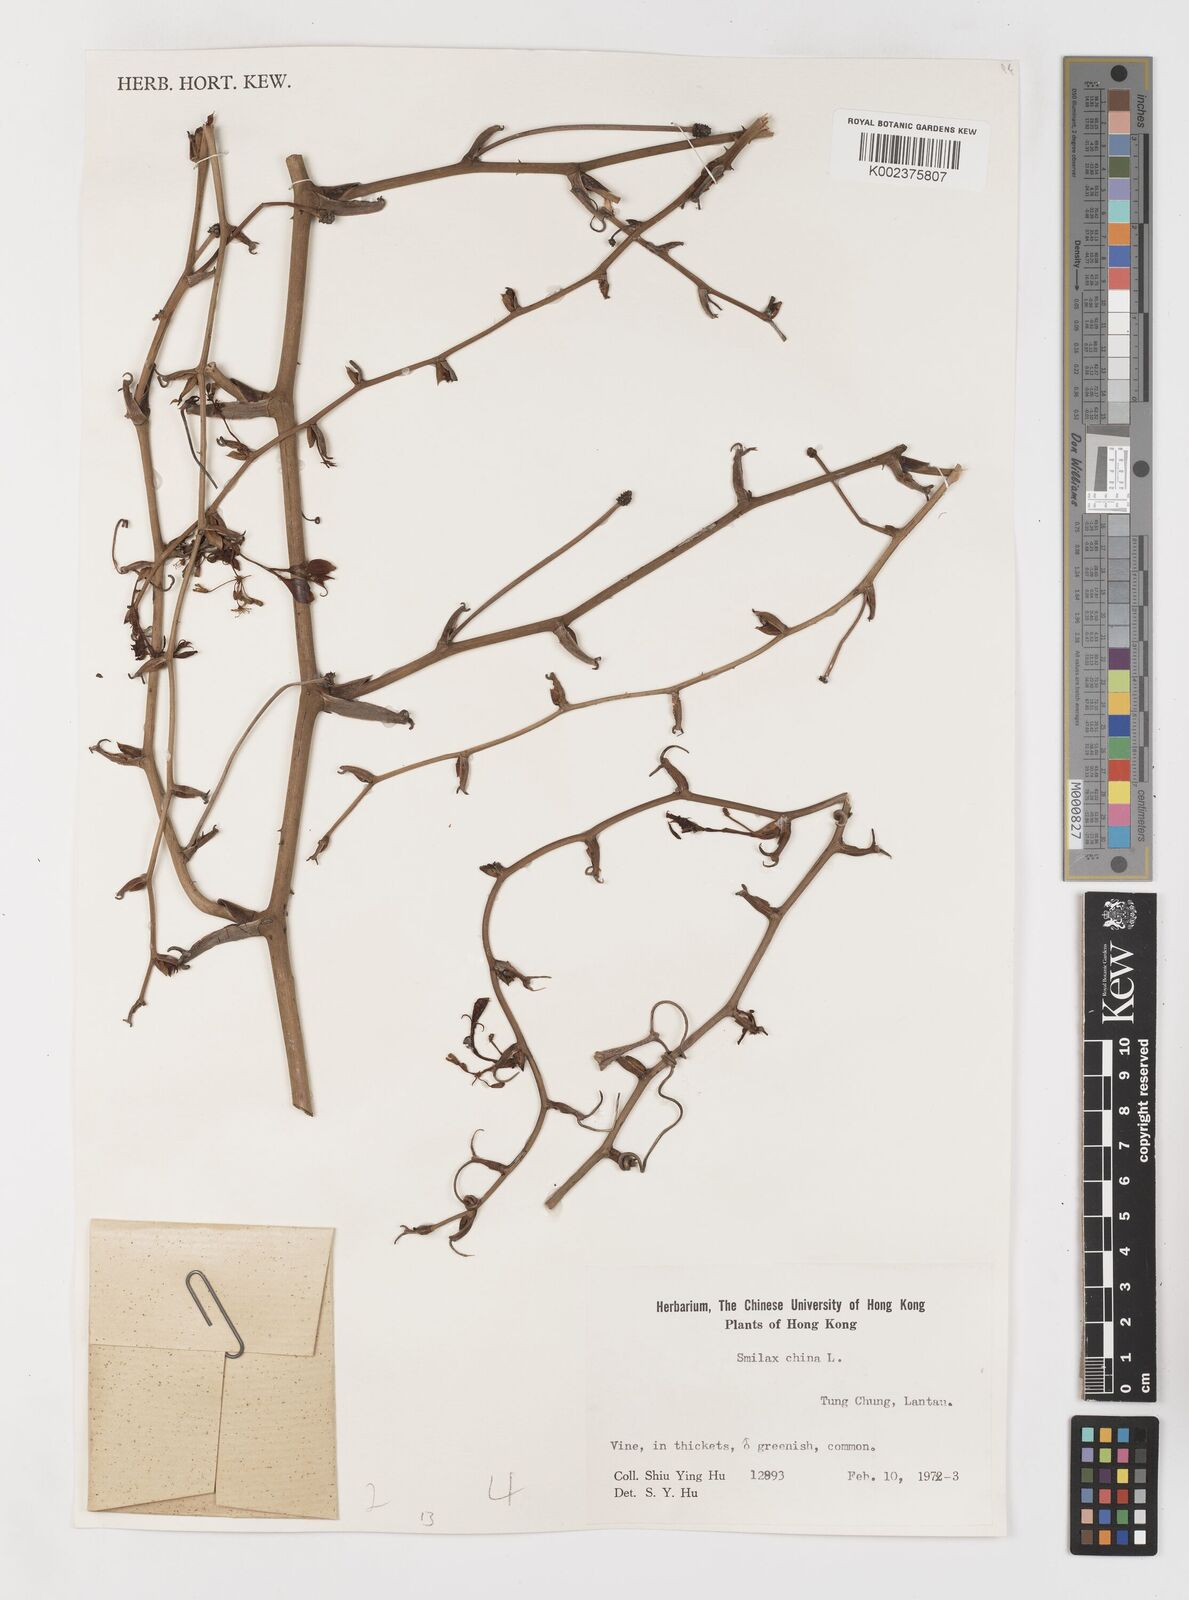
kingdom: Plantae
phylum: Tracheophyta
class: Liliopsida
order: Liliales
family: Smilacaceae
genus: Smilax
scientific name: Smilax china
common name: Chinaroot
